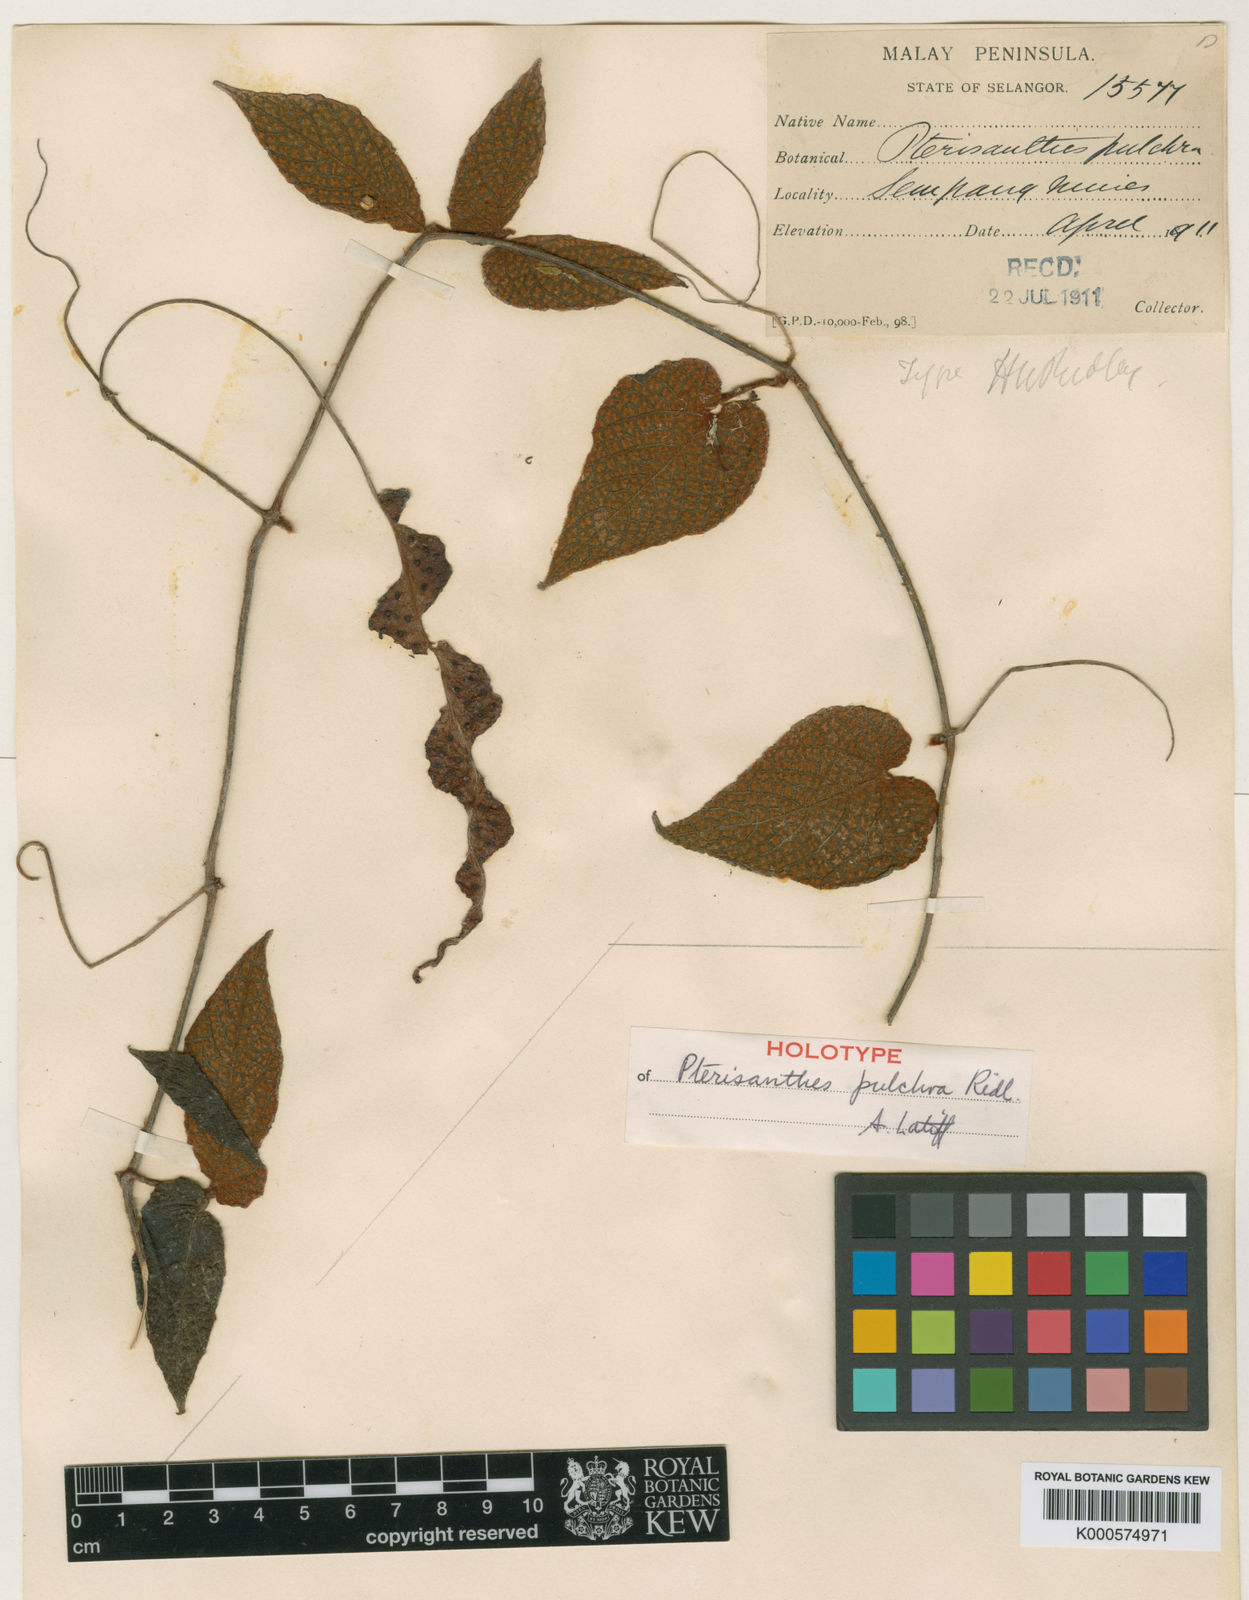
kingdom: Plantae
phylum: Tracheophyta
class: Magnoliopsida
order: Vitales
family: Vitaceae
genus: Pterisanthes
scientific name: Pterisanthes pulchra
